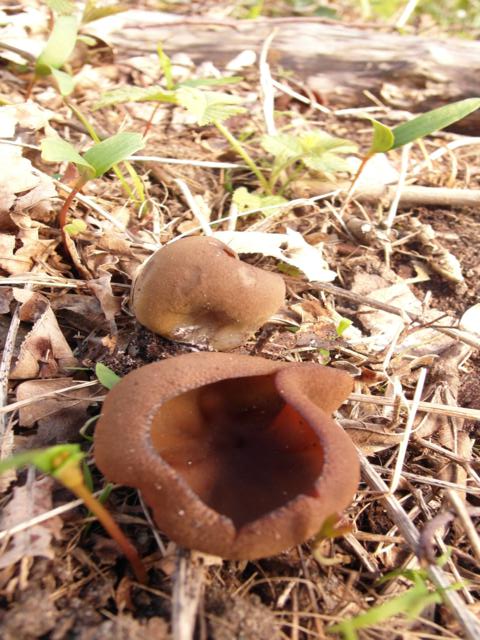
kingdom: Fungi
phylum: Ascomycota
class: Pezizomycetes
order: Pezizales
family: Pezizaceae
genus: Peziza
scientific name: Peziza arvernensis
